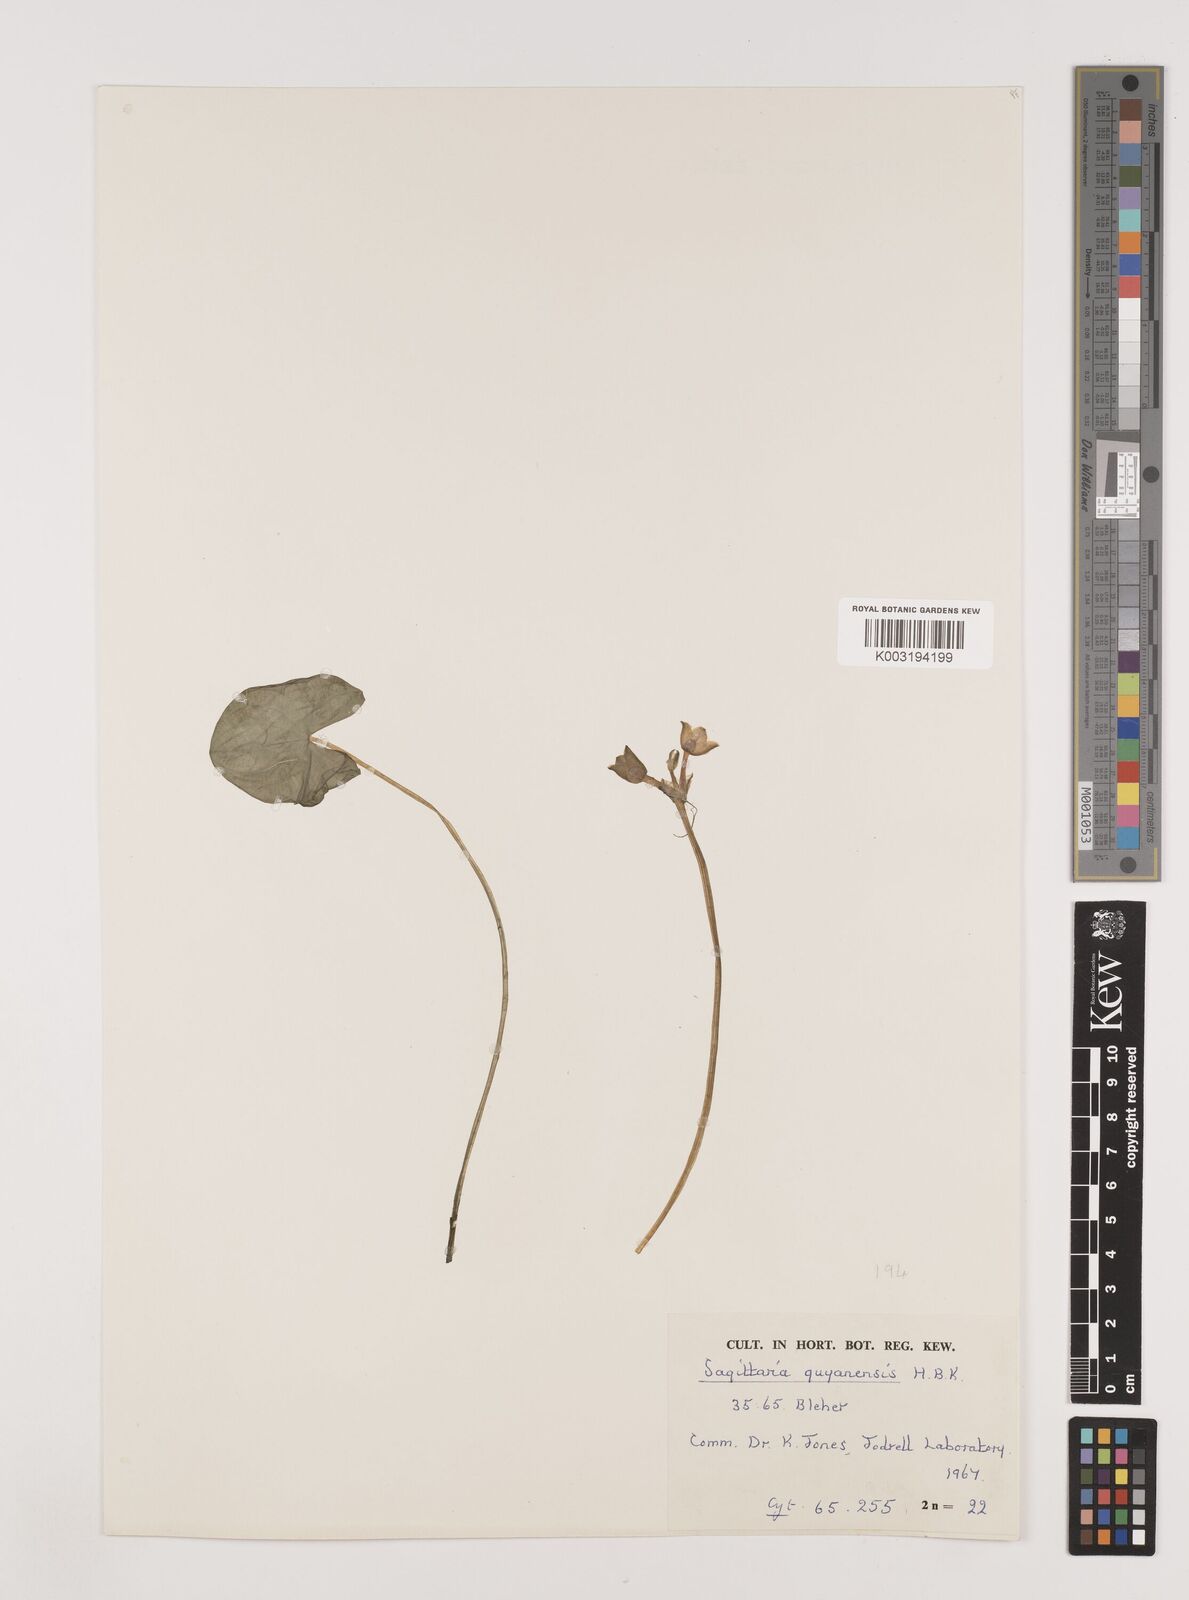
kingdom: Plantae
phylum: Tracheophyta
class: Liliopsida
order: Alismatales
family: Alismataceae
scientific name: Alismataceae
